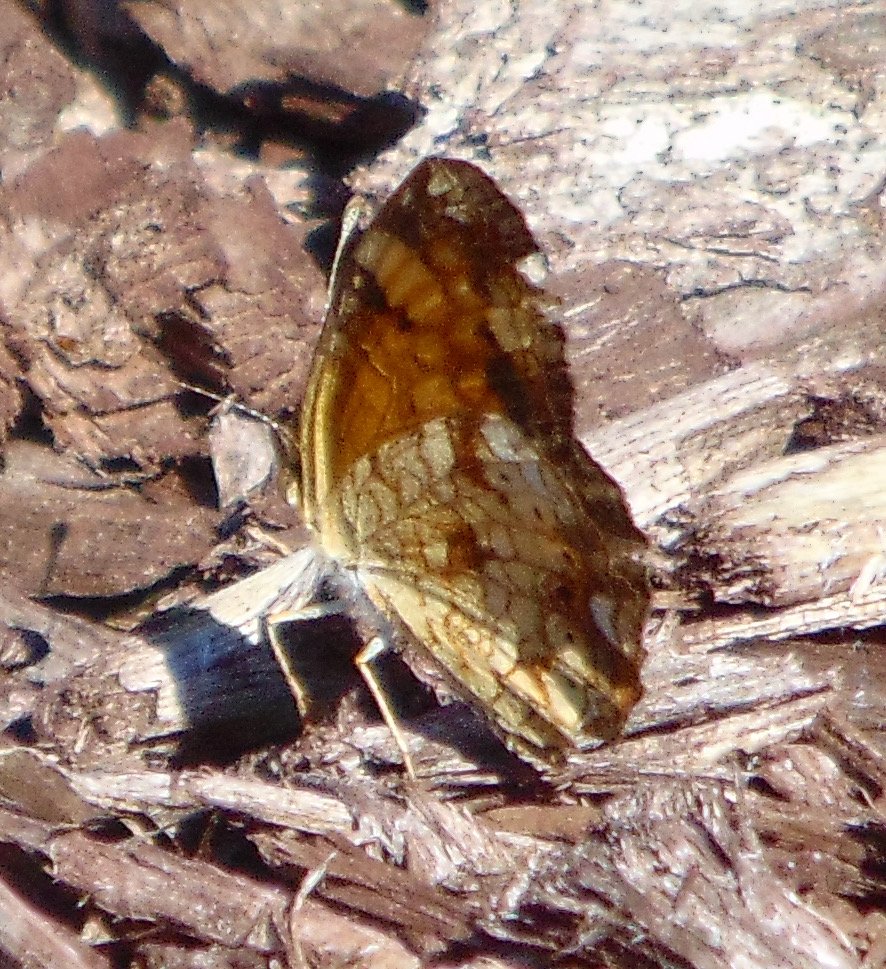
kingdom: Animalia
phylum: Arthropoda
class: Insecta
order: Lepidoptera
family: Nymphalidae
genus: Phyciodes
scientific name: Phyciodes tharos
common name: Pearl Crescent
